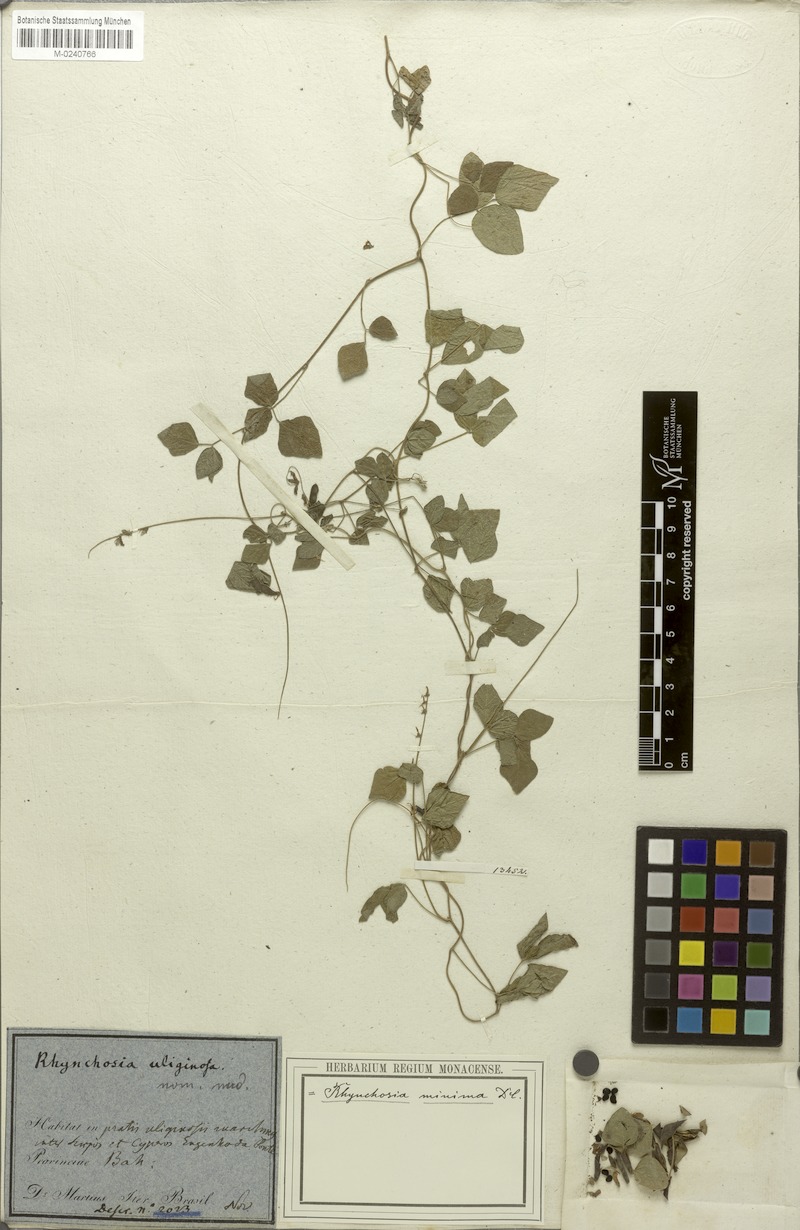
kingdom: Plantae
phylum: Tracheophyta
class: Magnoliopsida
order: Fabales
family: Fabaceae
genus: Rhynchosia
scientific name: Rhynchosia minima
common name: Least snoutbean
